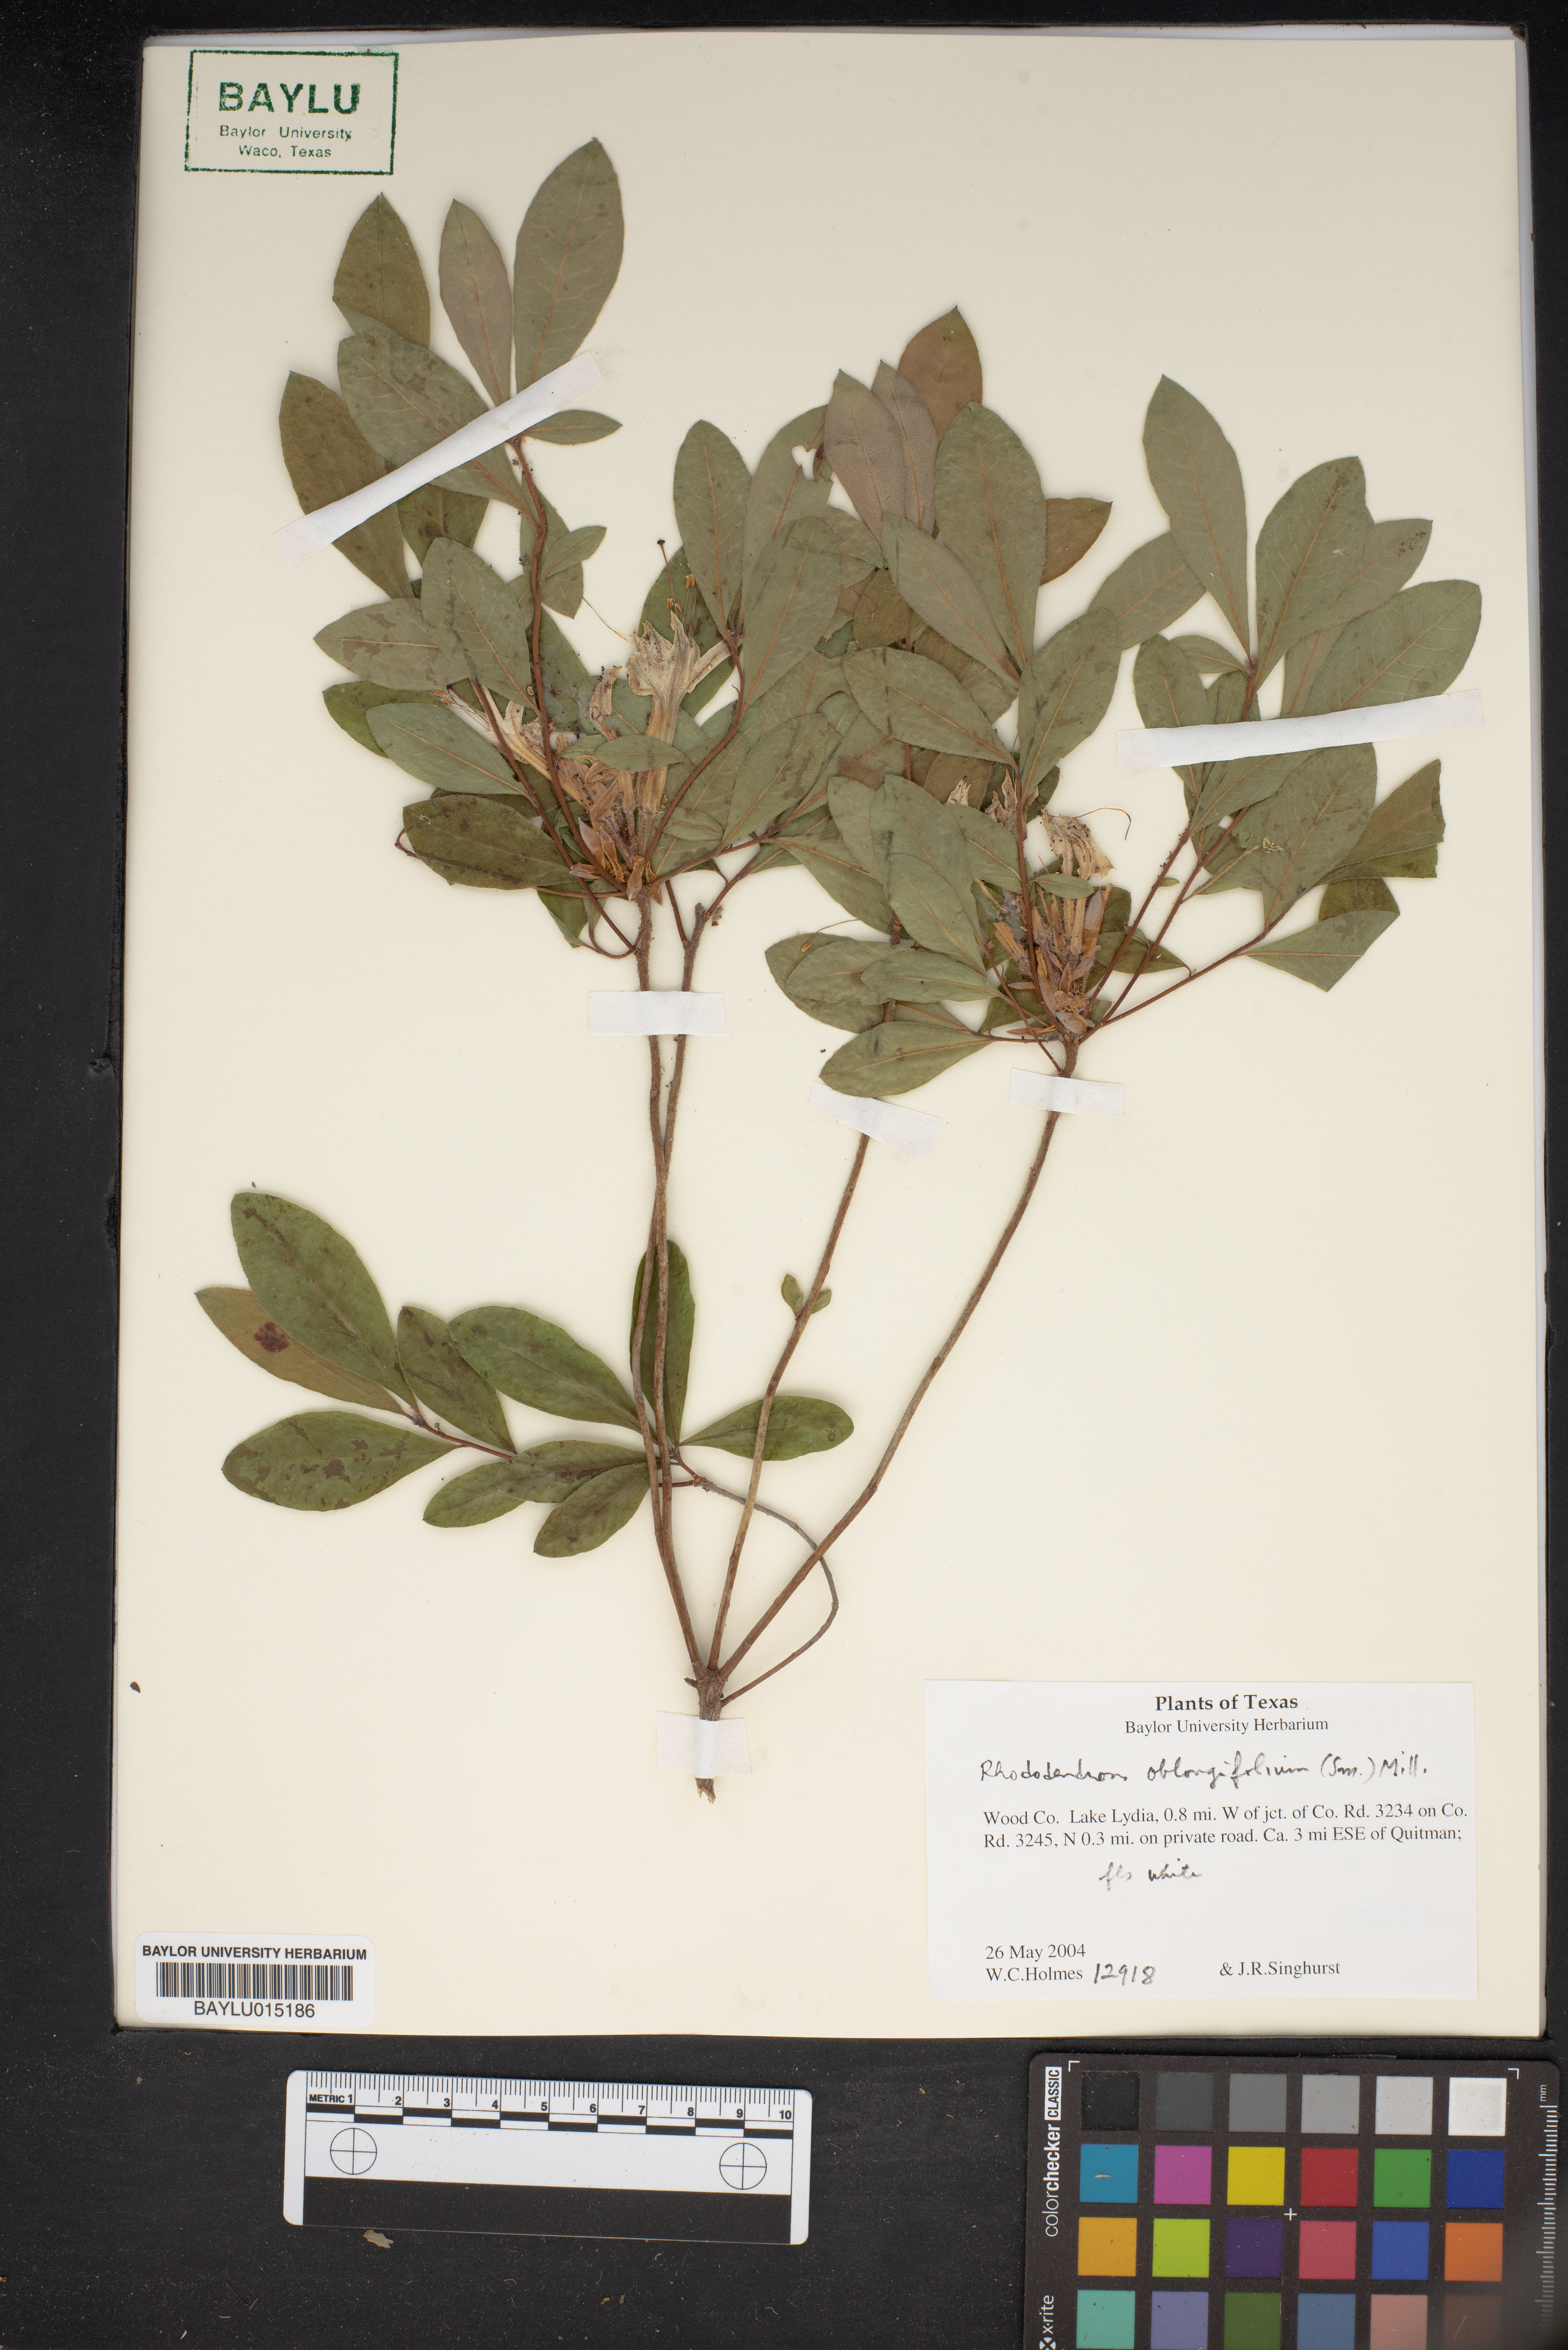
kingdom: Plantae
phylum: Tracheophyta
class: Magnoliopsida
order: Ericales
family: Ericaceae
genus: Rhododendron
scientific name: Rhododendron viscosum
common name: Clammy azalea
